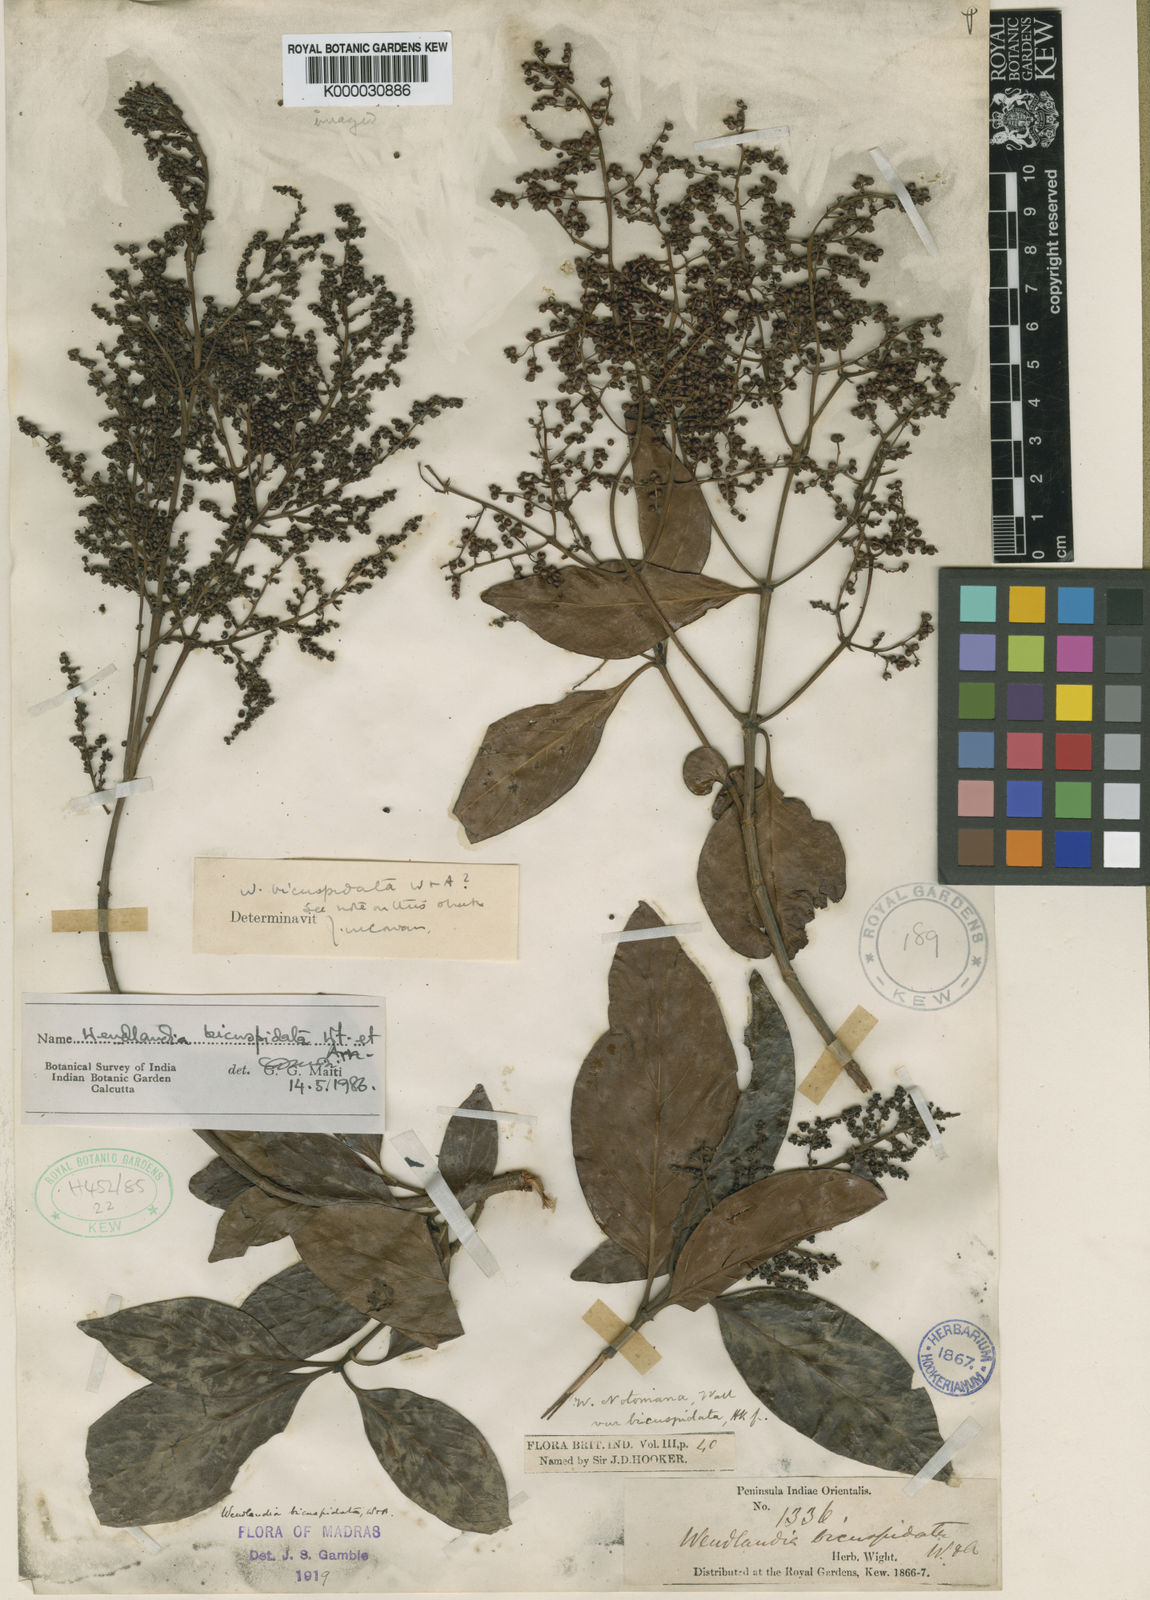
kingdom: Plantae
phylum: Tracheophyta
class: Magnoliopsida
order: Gentianales
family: Rubiaceae
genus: Wendlandia
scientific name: Wendlandia
